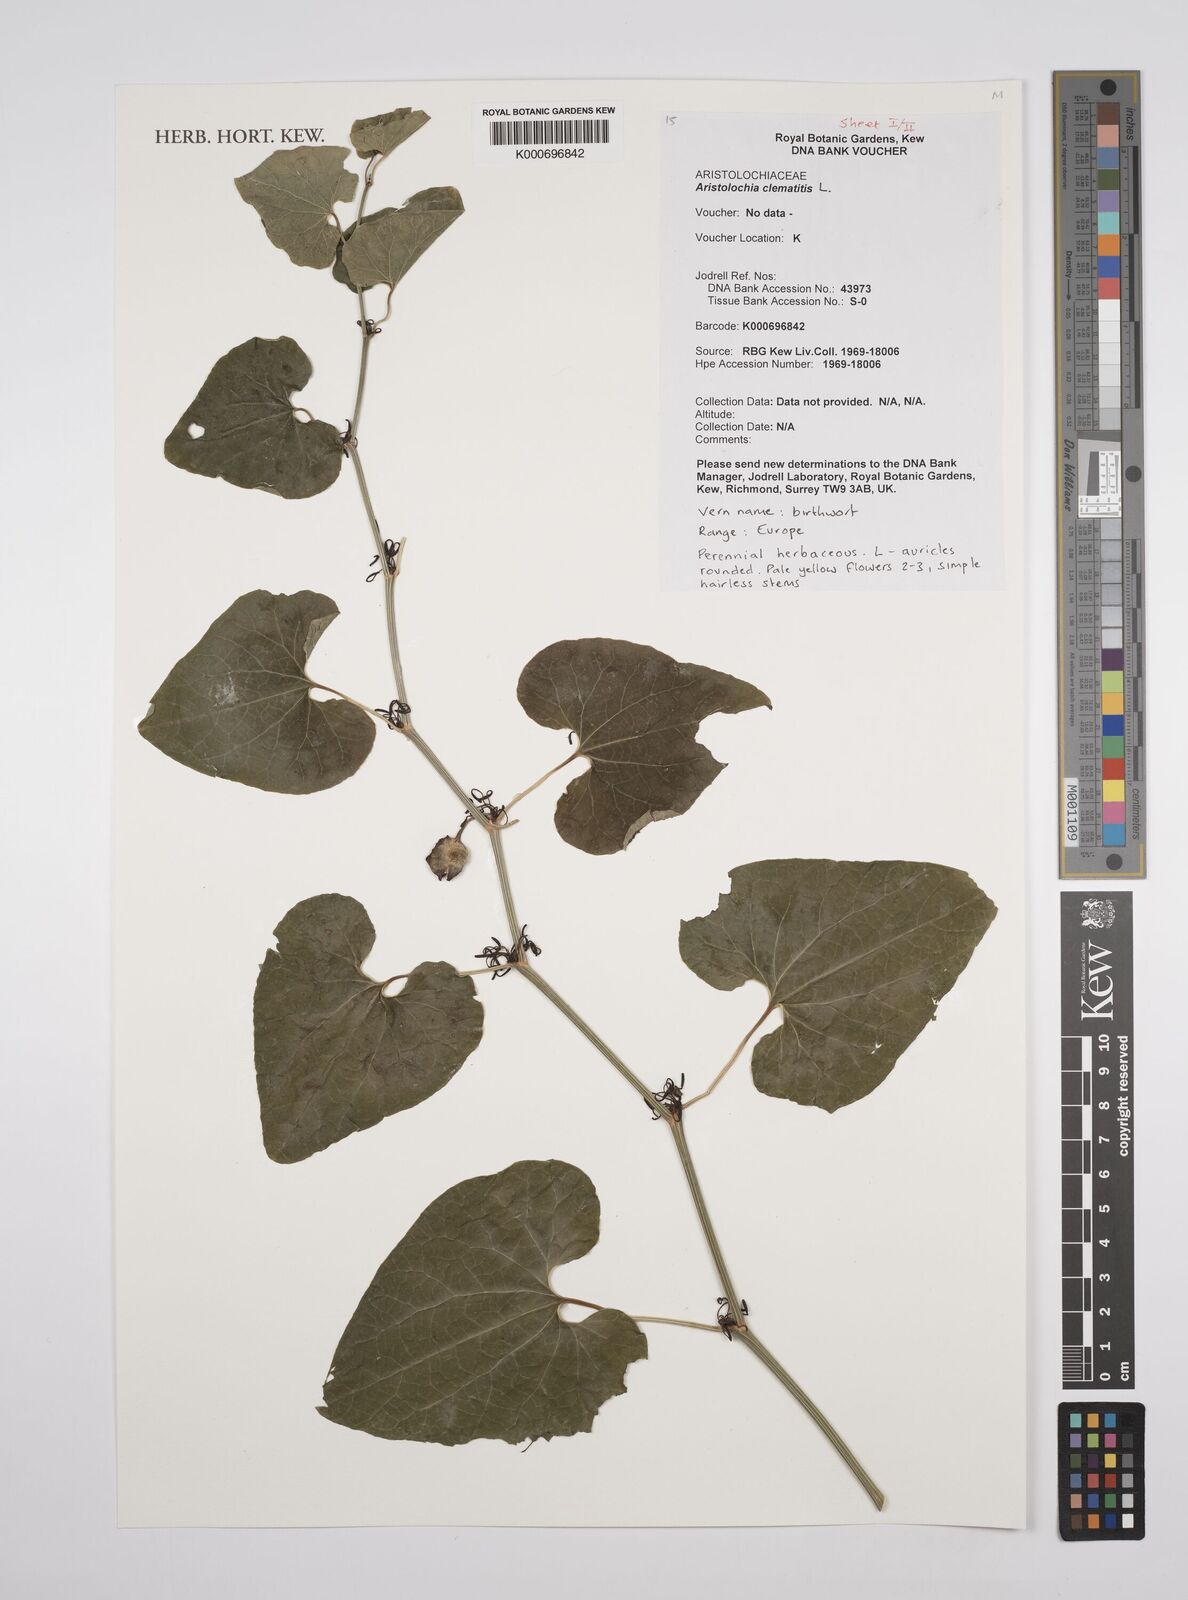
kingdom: Plantae
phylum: Tracheophyta
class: Magnoliopsida
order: Piperales
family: Aristolochiaceae
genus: Aristolochia
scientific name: Aristolochia clematitis
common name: Birthwort
